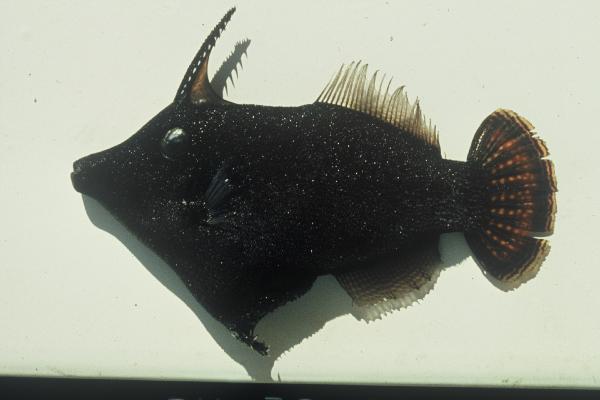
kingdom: Animalia
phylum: Chordata
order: Tetraodontiformes
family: Monacanthidae
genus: Pervagor
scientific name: Pervagor janthinosoma
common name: Blackbar filefish
